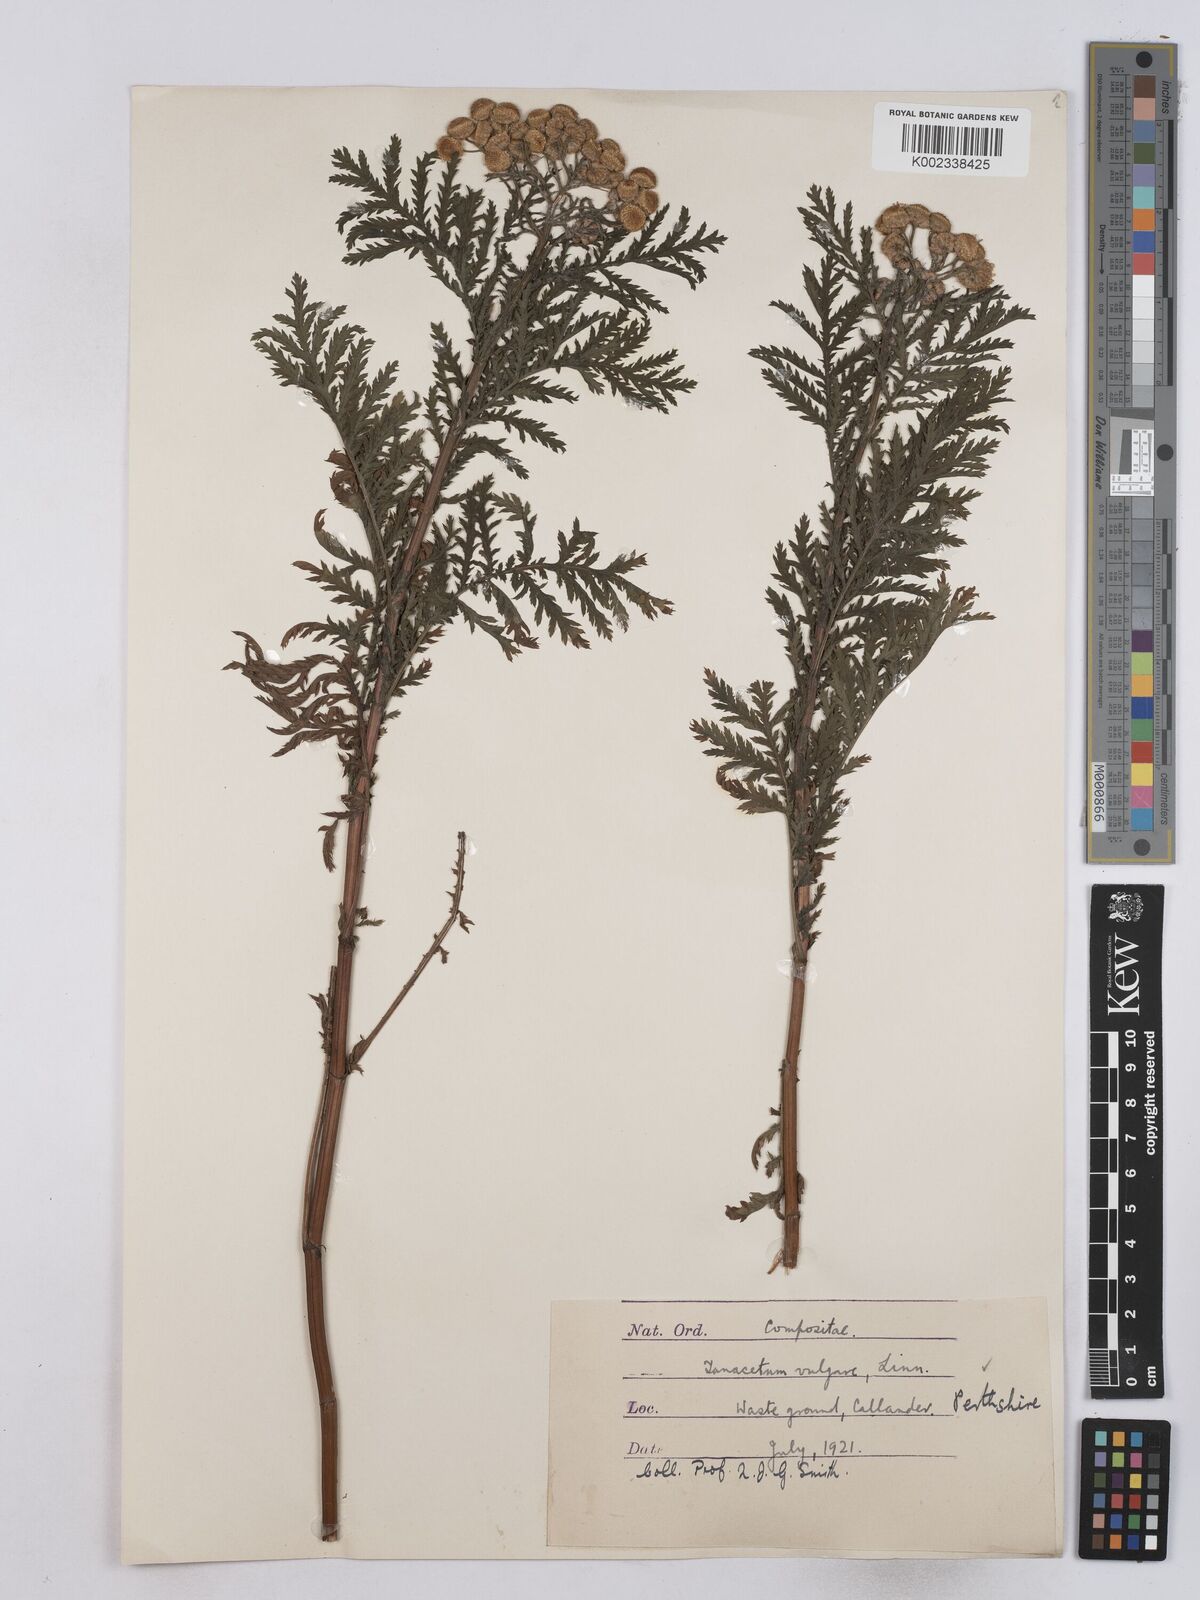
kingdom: Plantae
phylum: Tracheophyta
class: Magnoliopsida
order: Asterales
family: Asteraceae
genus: Tanacetum
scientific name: Tanacetum vulgare
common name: Common tansy
